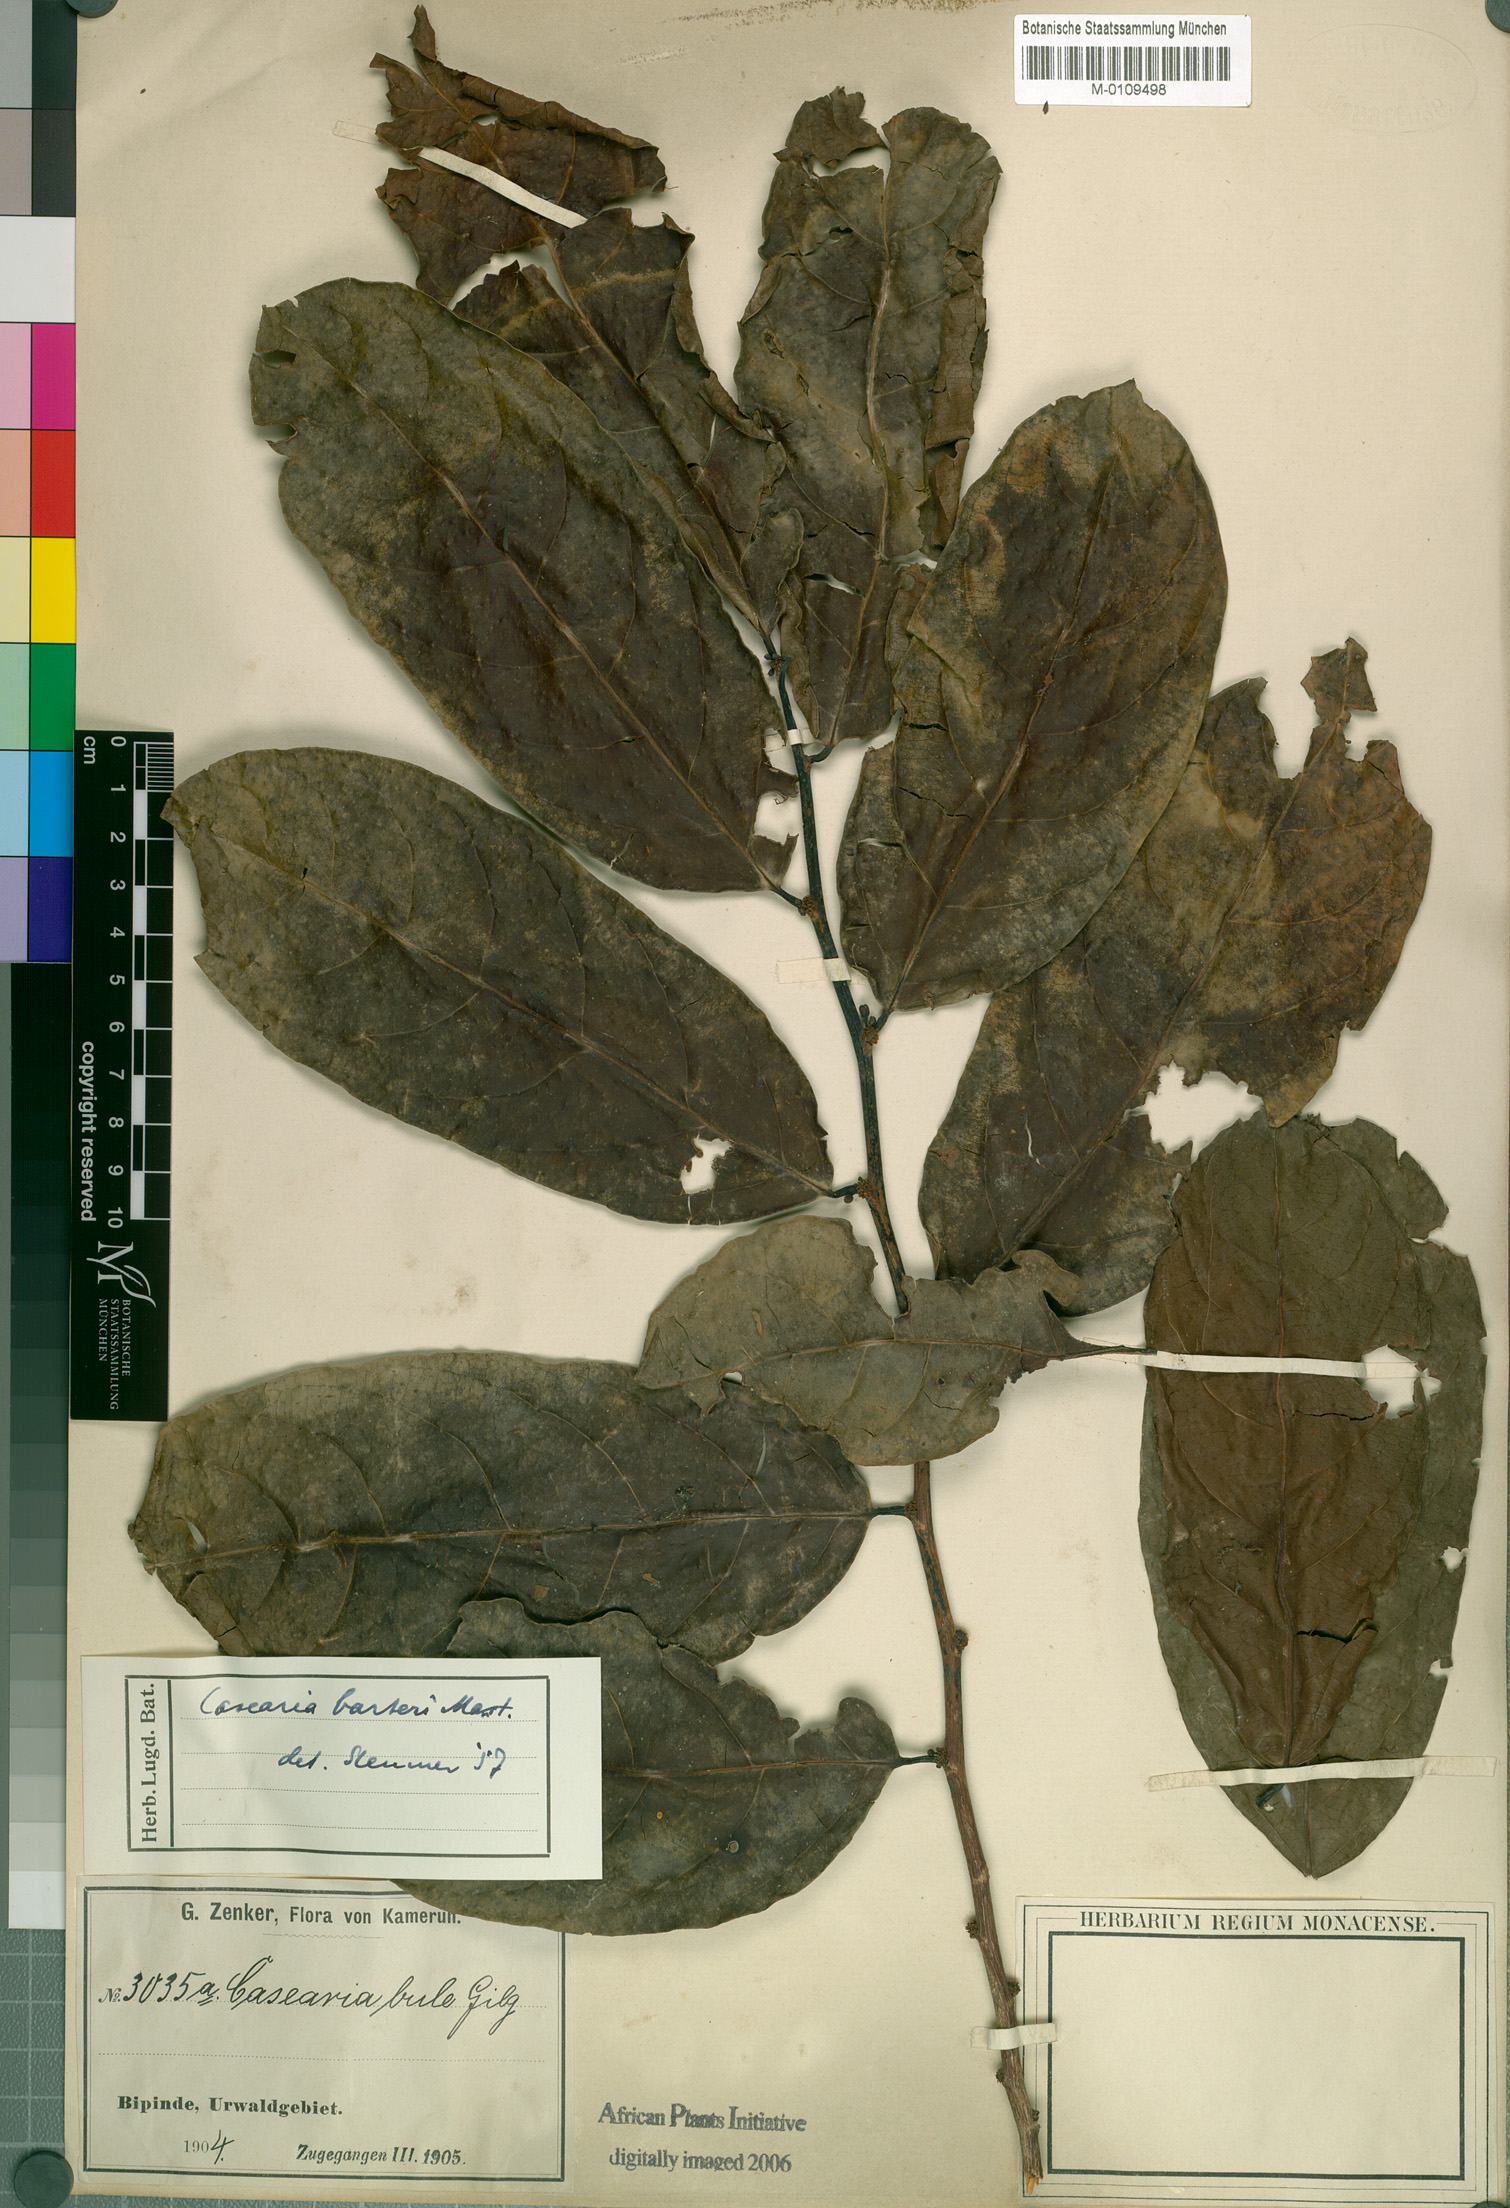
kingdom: Plantae
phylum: Tracheophyta
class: Magnoliopsida
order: Malpighiales
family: Salicaceae
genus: Casearia
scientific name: Casearia barteri
